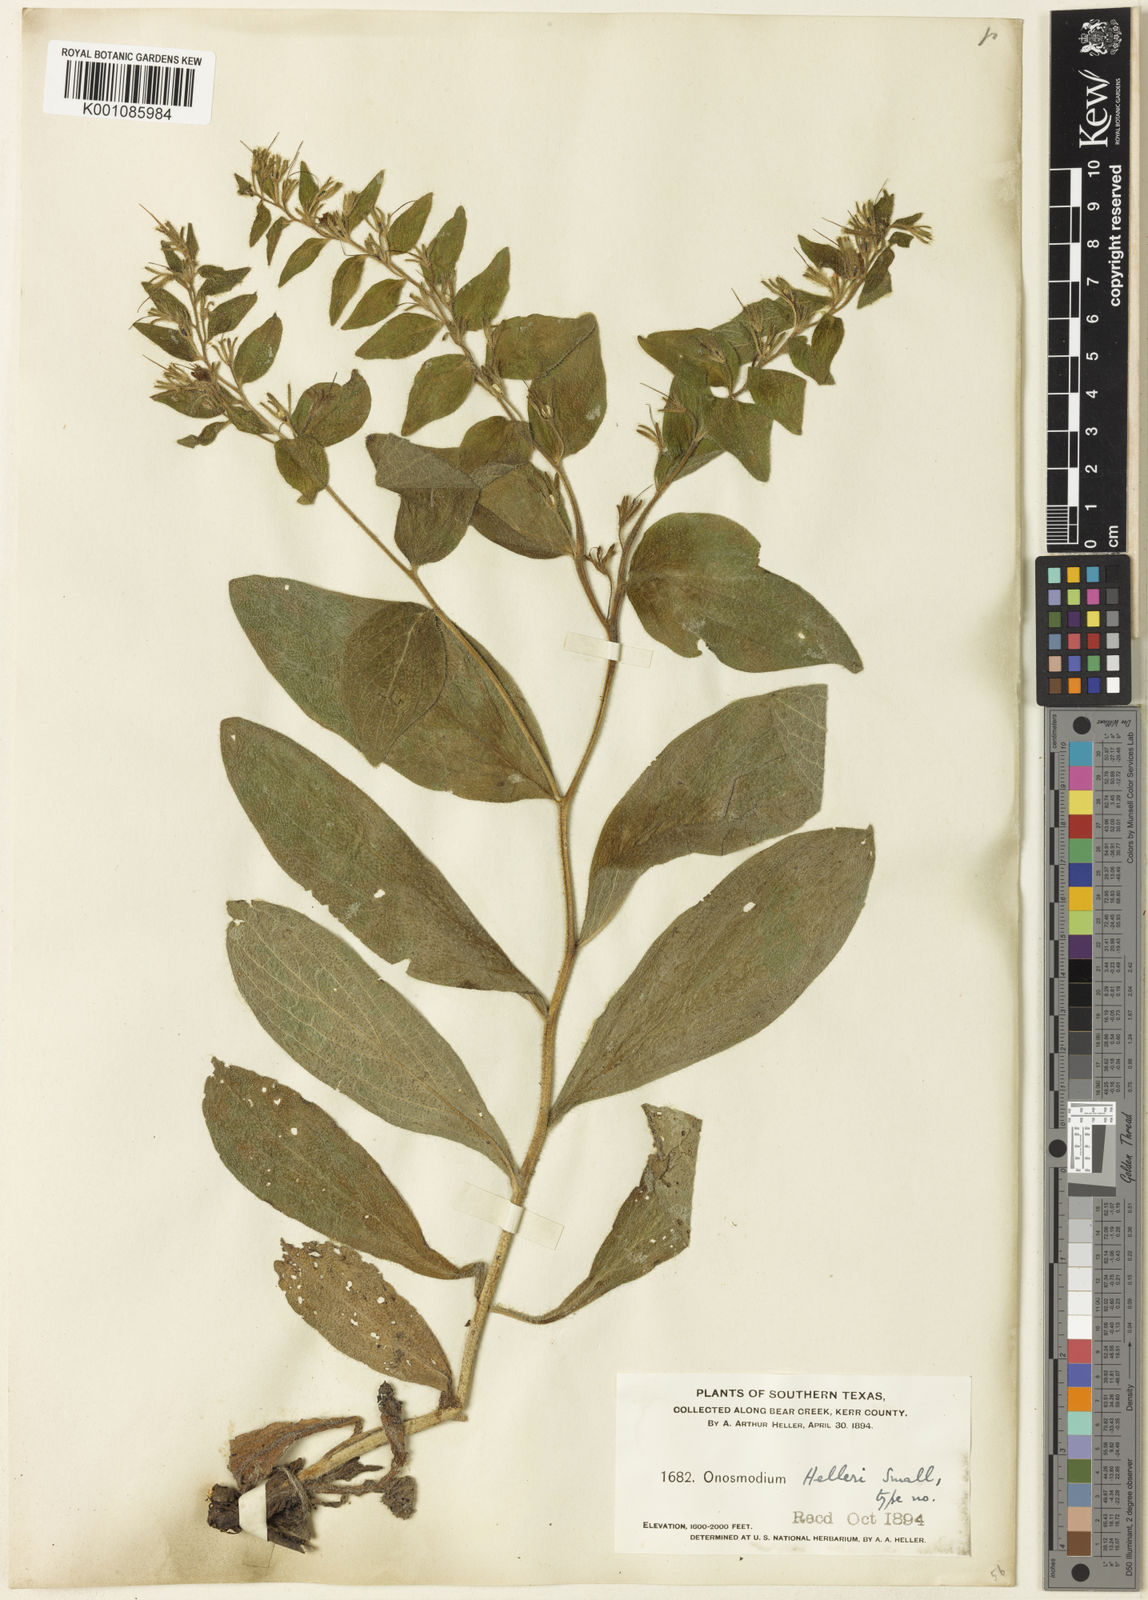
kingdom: Plantae
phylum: Tracheophyta
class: Magnoliopsida
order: Boraginales
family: Boraginaceae
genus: Lithospermum
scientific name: Lithospermum helleri
